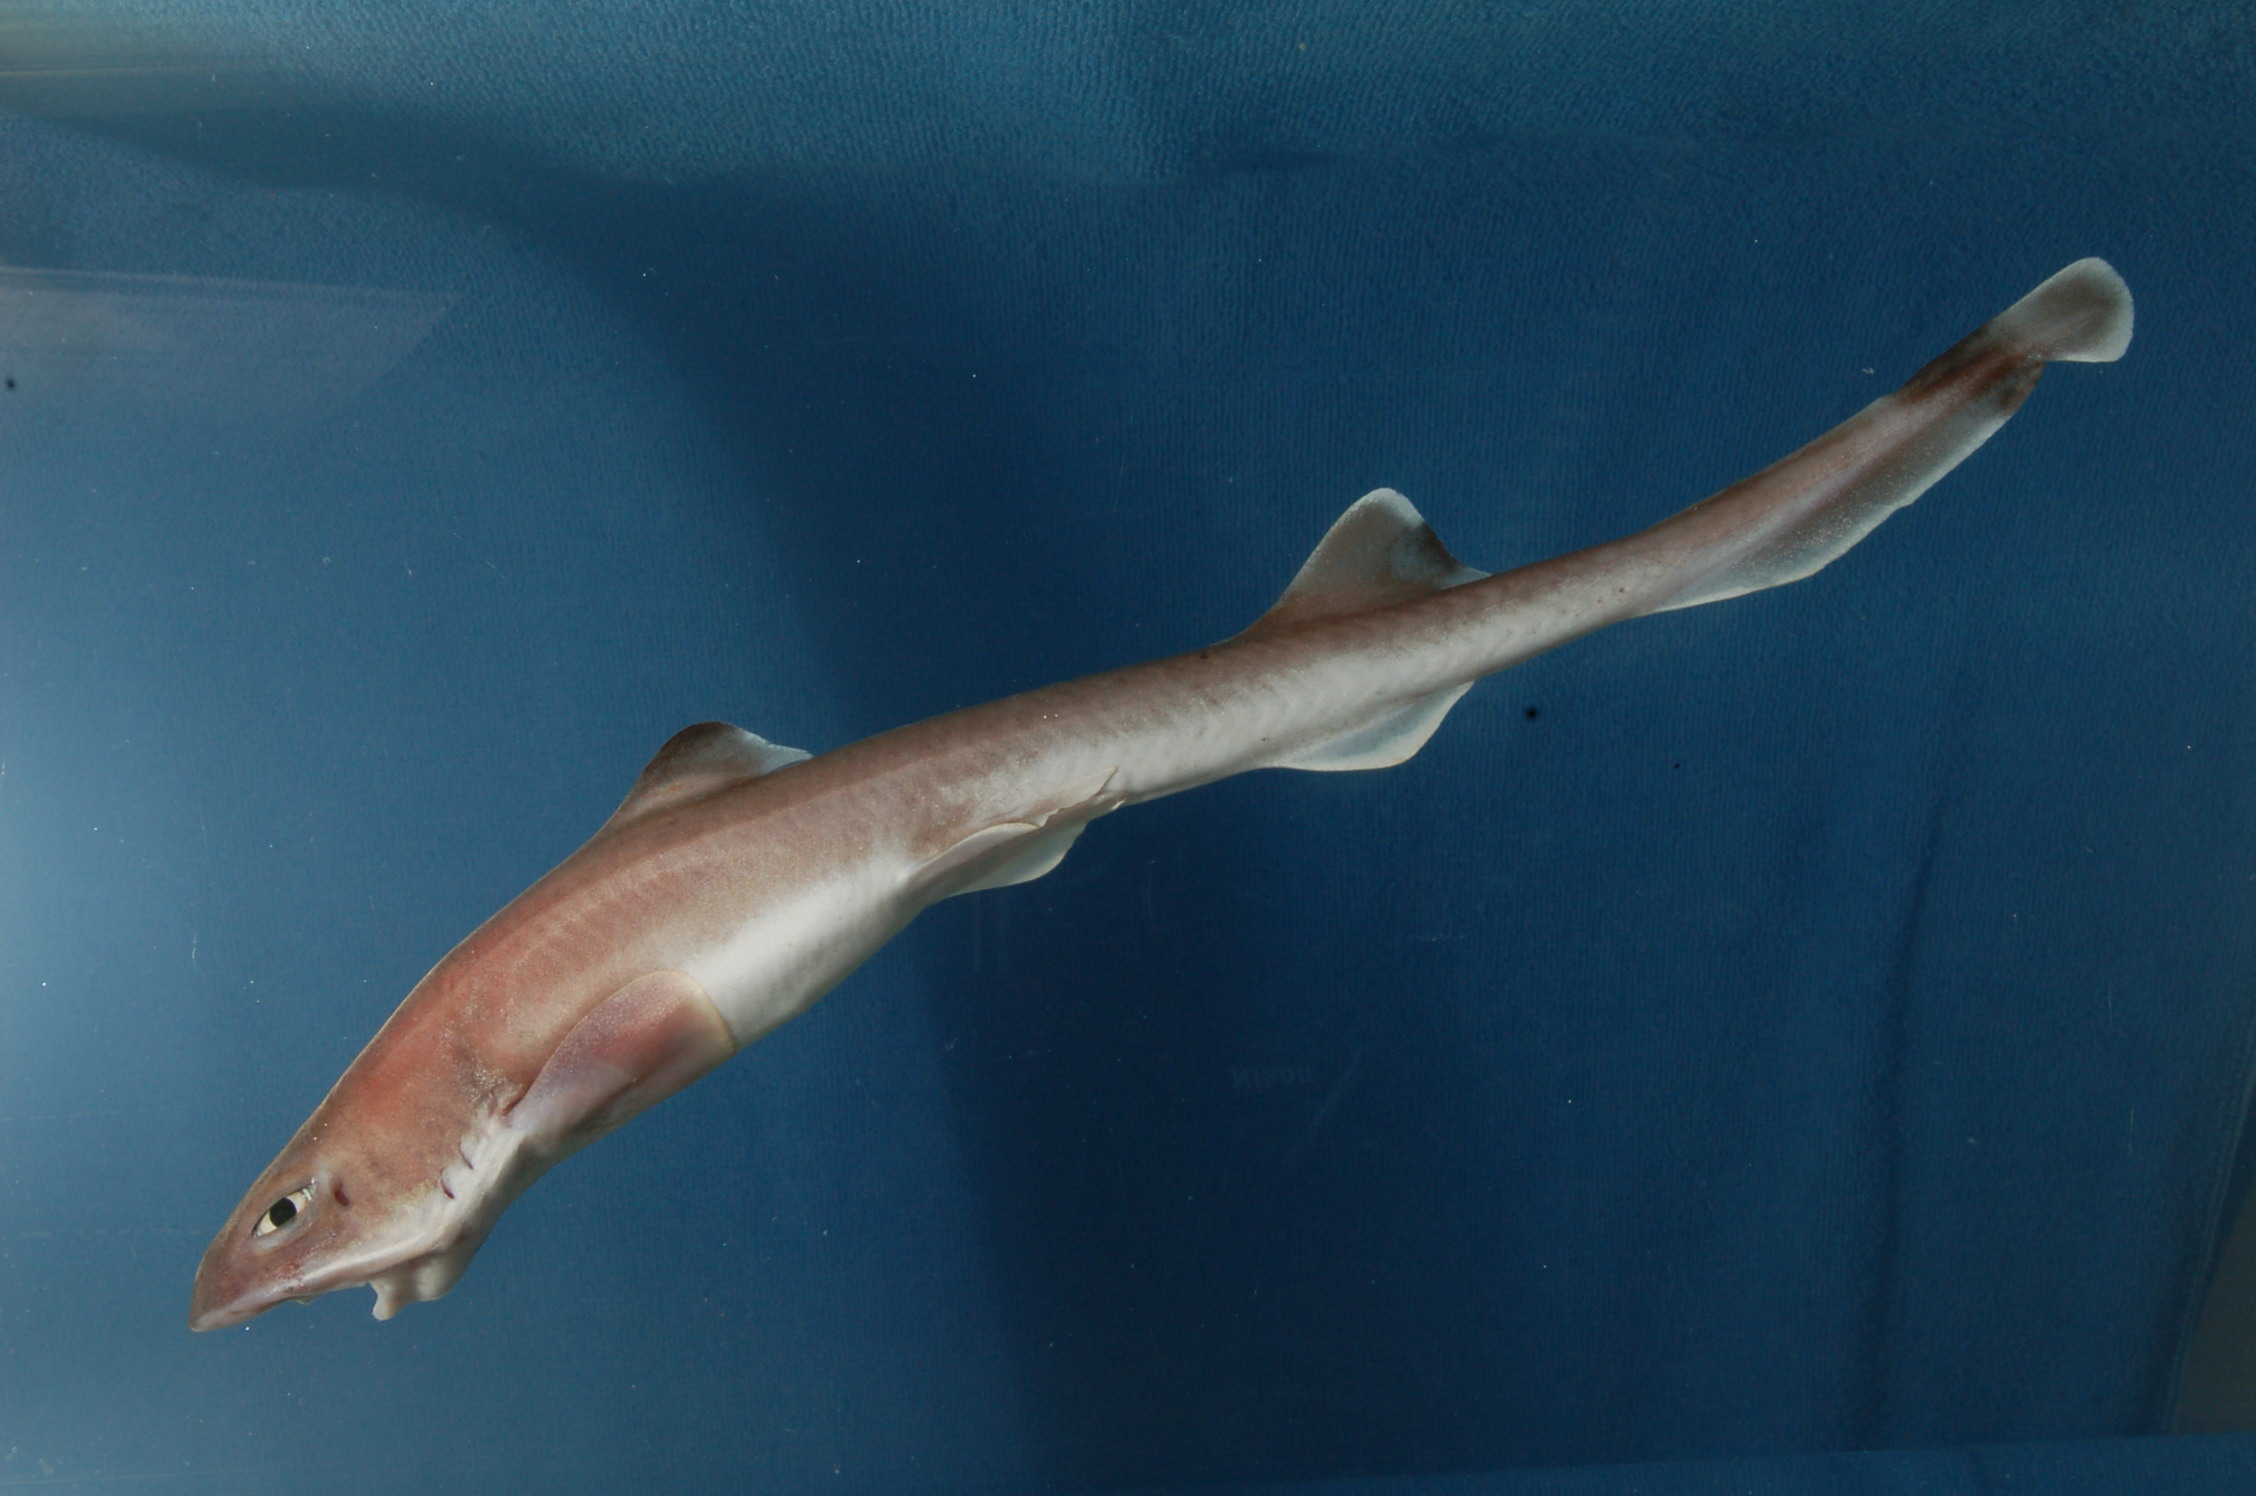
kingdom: Animalia
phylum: Chordata
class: Elasmobranchii
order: Carcharhiniformes
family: Proscylliidae
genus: Eridacnis
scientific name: Eridacnis
